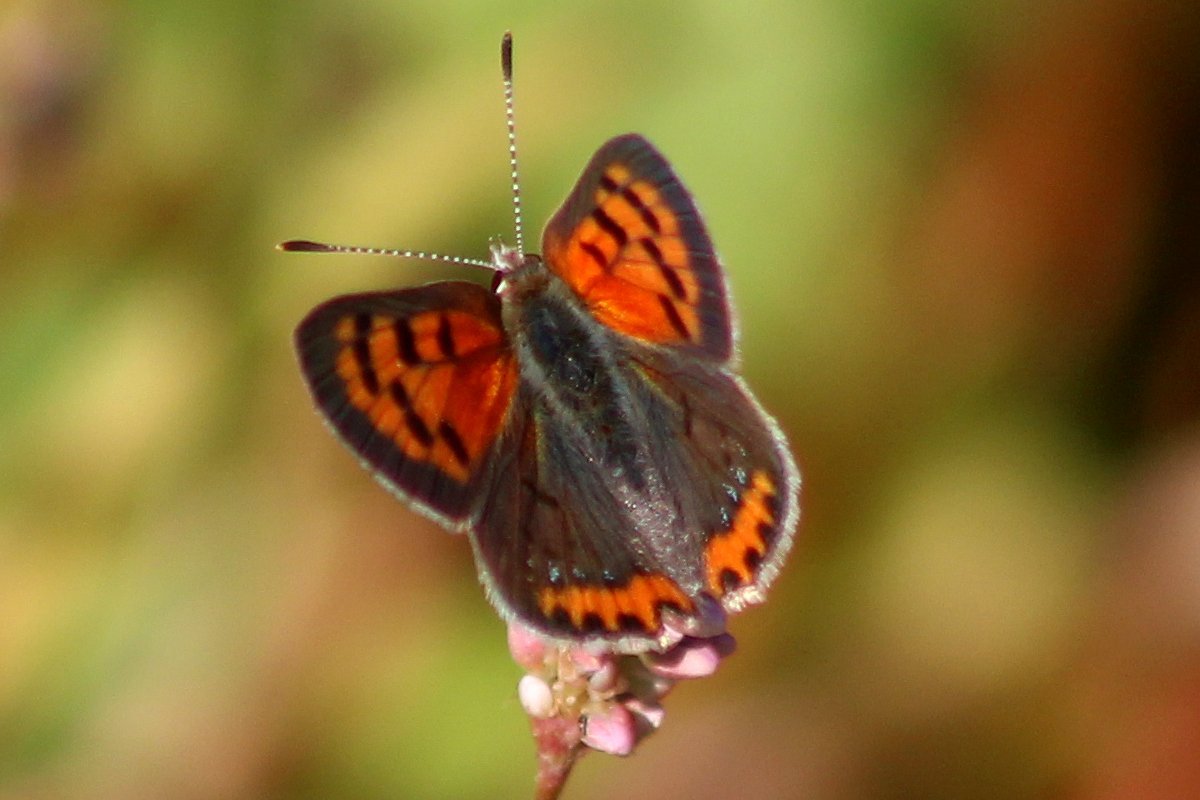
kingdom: Animalia
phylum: Arthropoda
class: Insecta
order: Lepidoptera
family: Lycaenidae
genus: Lycaena
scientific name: Lycaena phlaeas
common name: American Copper
